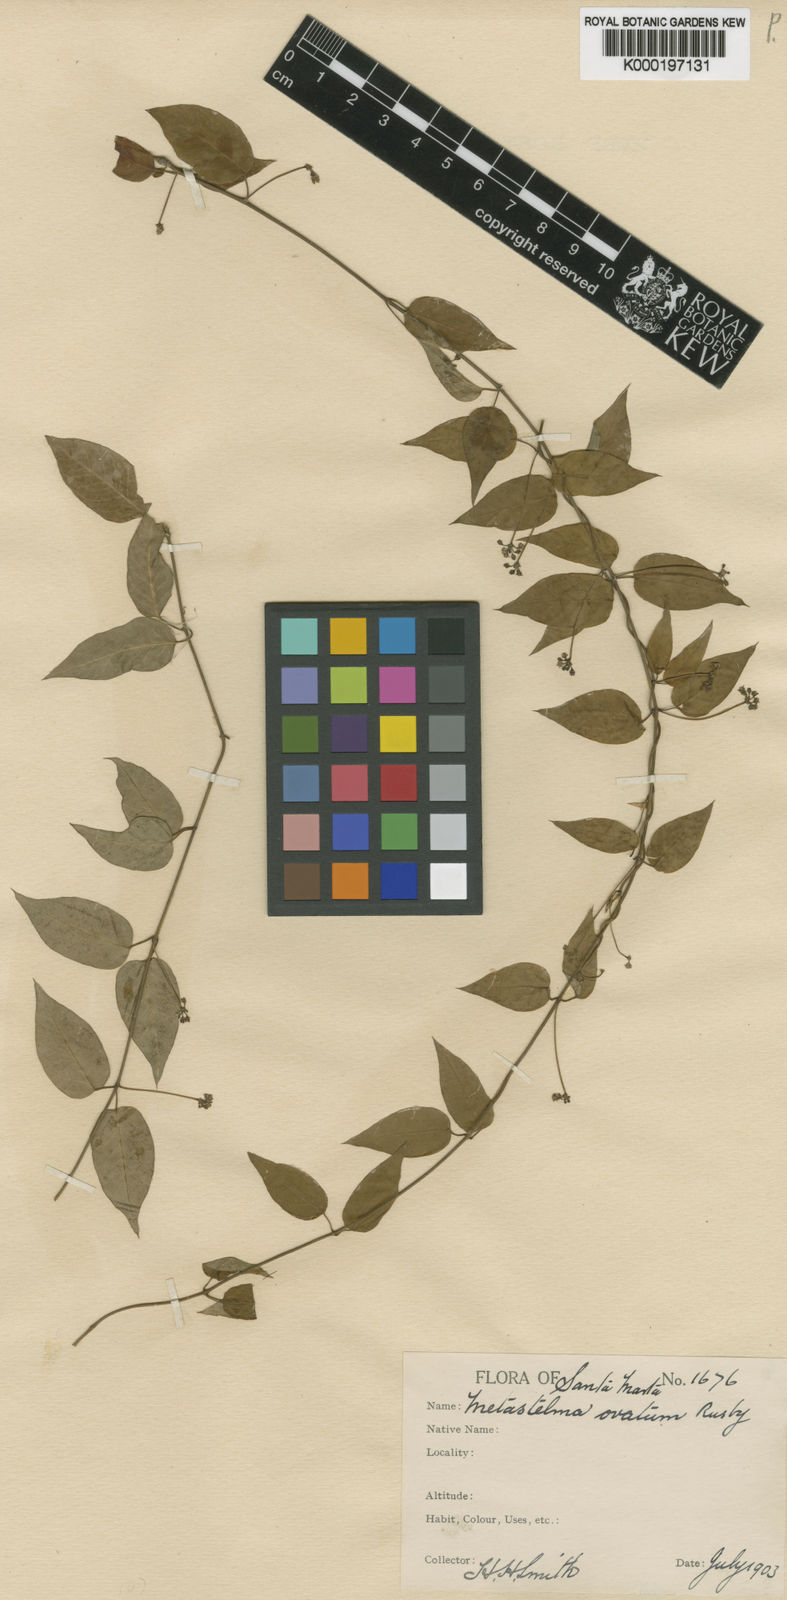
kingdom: Plantae
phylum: Tracheophyta
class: Magnoliopsida
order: Gentianales
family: Apocynaceae
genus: Metastelma
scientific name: Metastelma parviflorum
